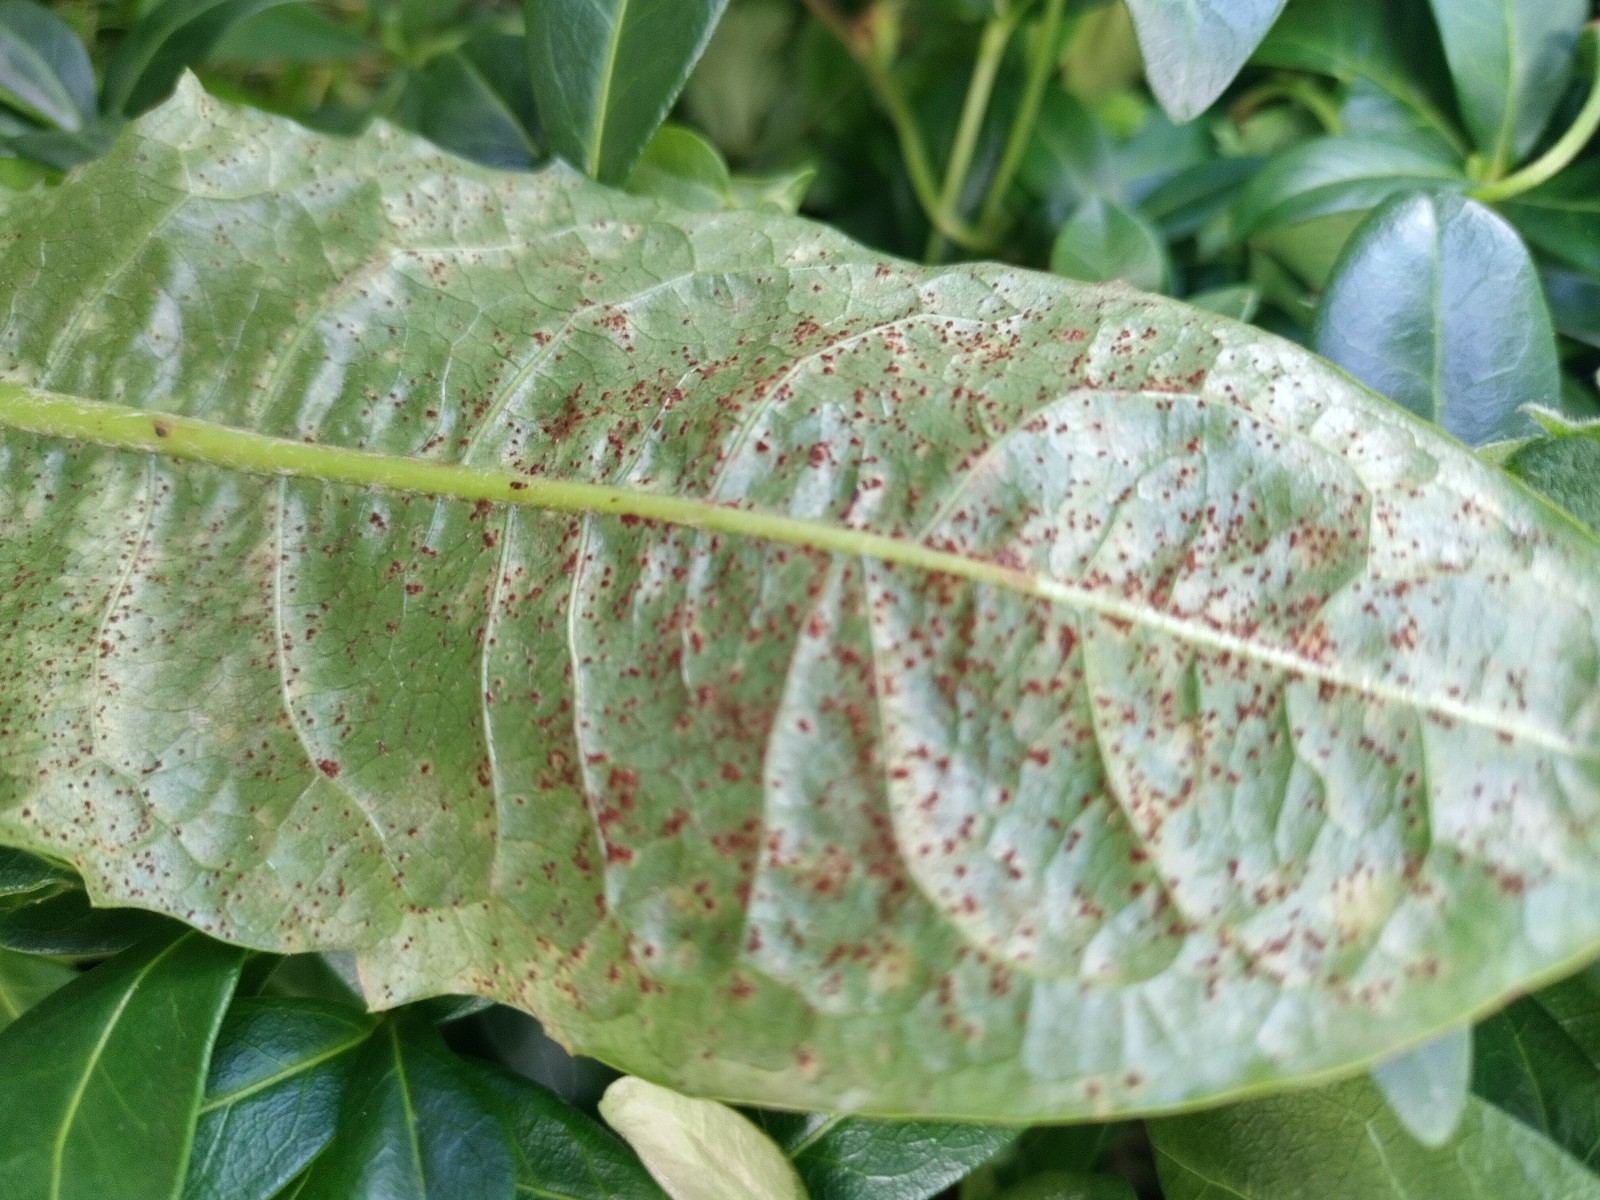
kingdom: Fungi
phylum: Basidiomycota
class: Pucciniomycetes
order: Pucciniales
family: Pucciniaceae
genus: Puccinia
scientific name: Puccinia hieracii
